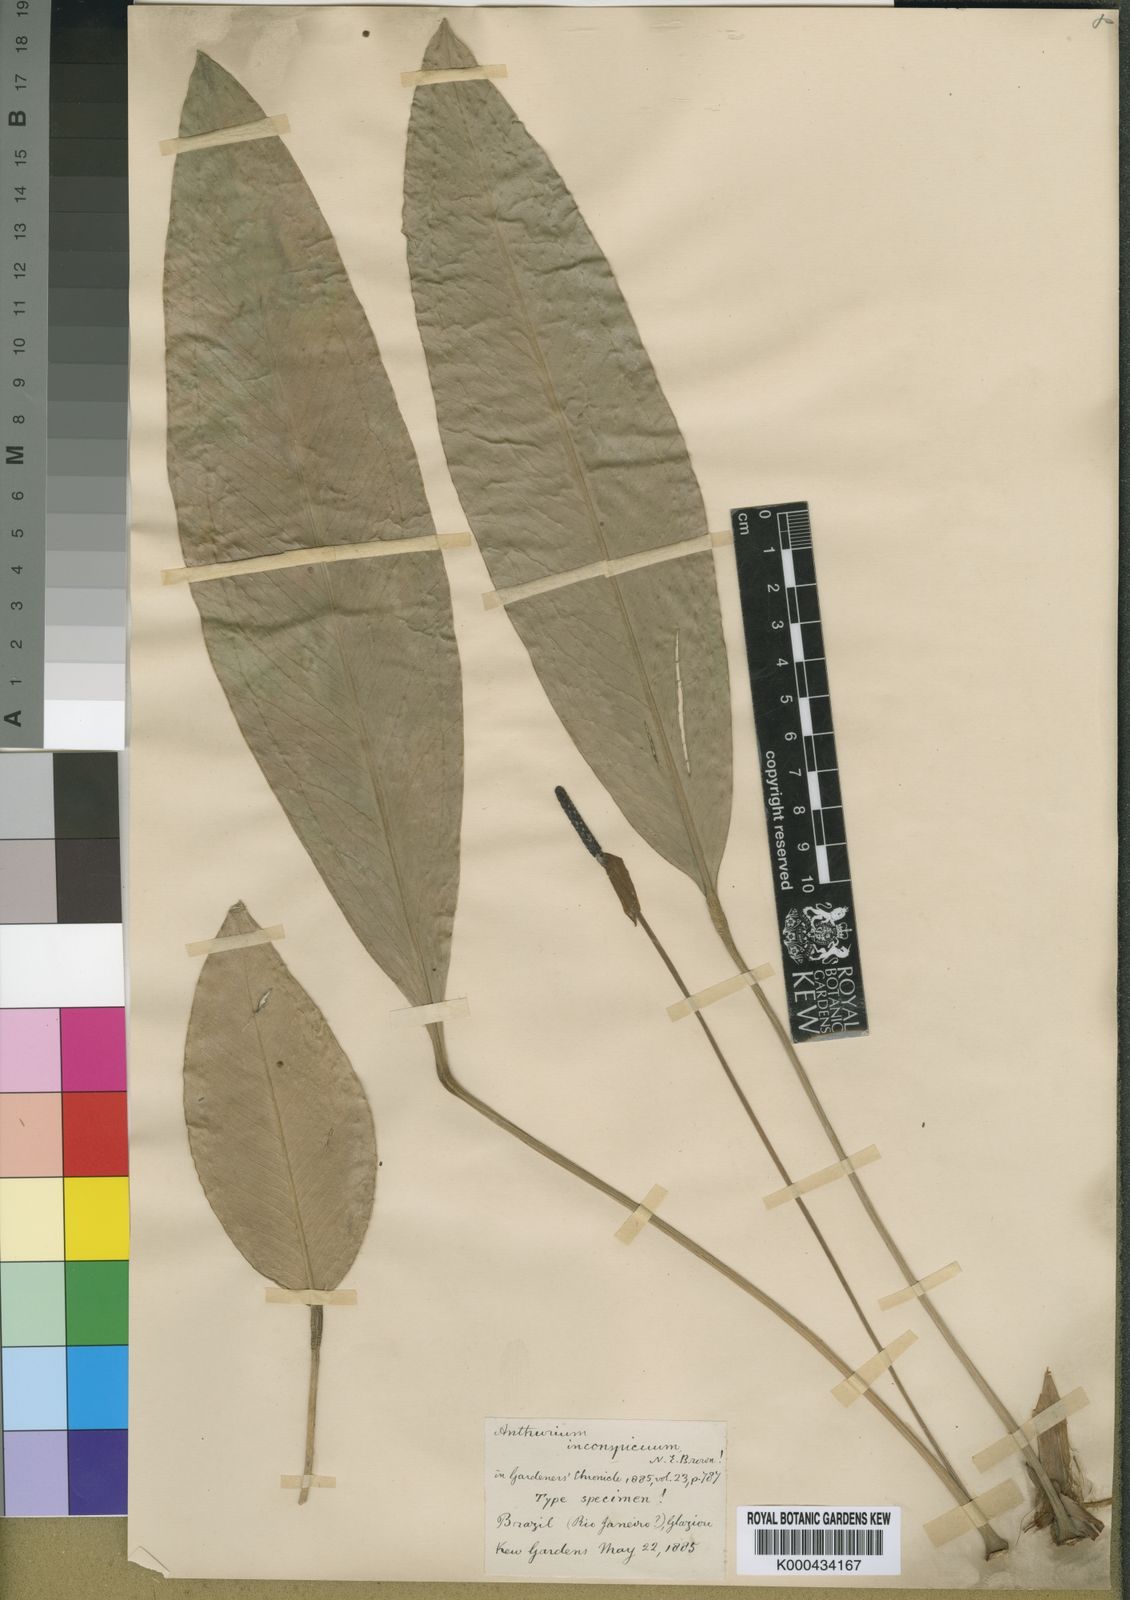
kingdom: Plantae
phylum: Tracheophyta
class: Liliopsida
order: Alismatales
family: Araceae
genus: Anthurium
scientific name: Anthurium inconspicuum
